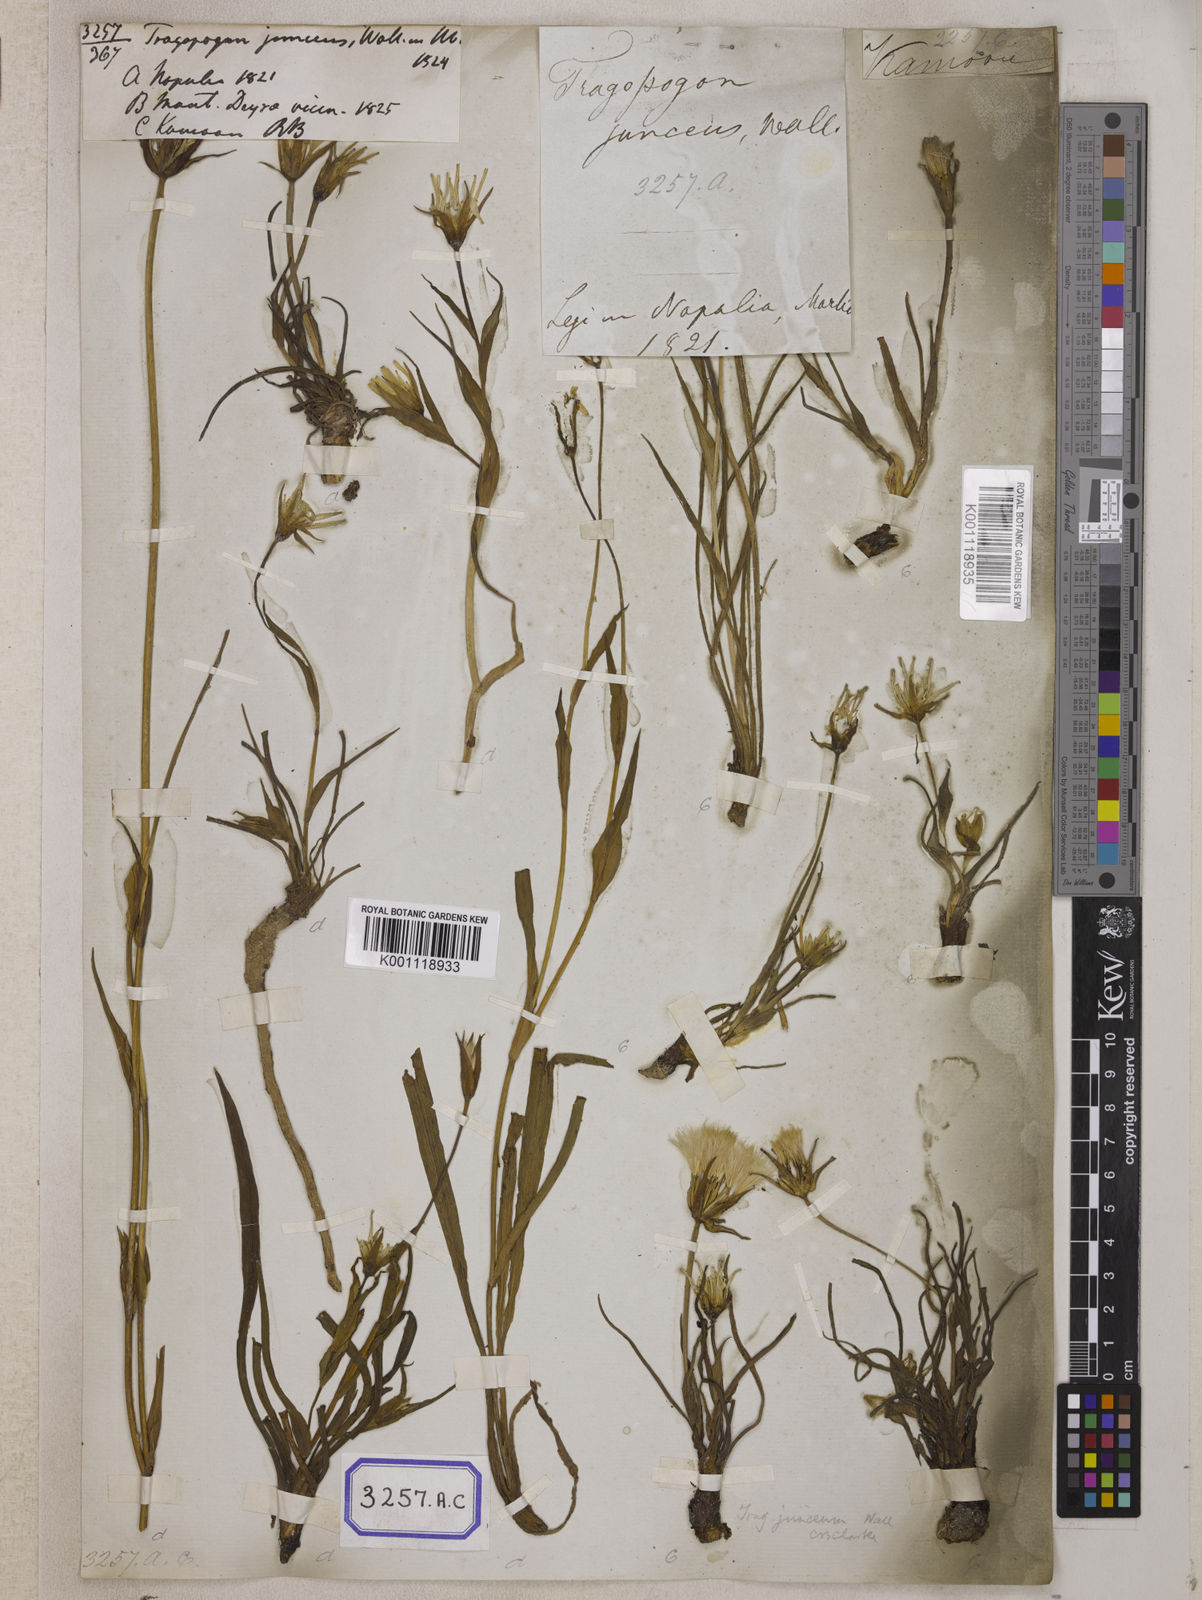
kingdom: Plantae
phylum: Tracheophyta
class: Magnoliopsida
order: Asterales
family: Asteraceae
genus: Tragopogon
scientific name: Tragopogon gracilis
